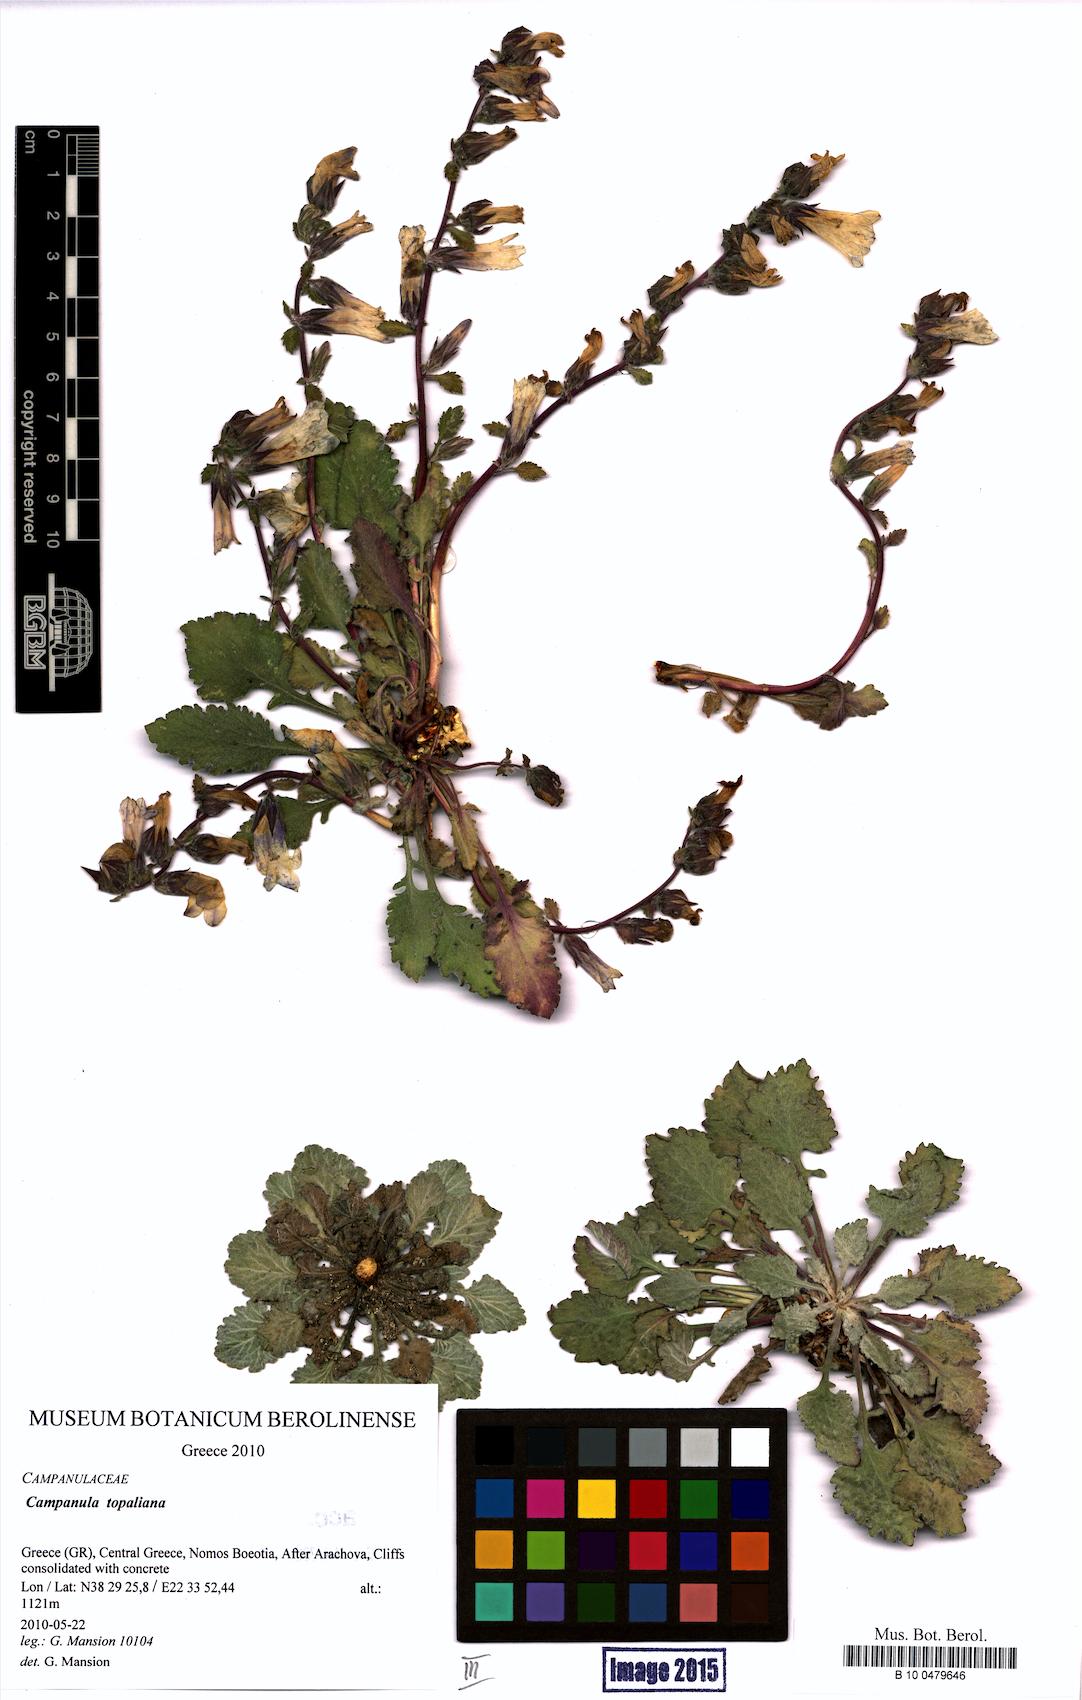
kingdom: Plantae
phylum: Tracheophyta
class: Magnoliopsida
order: Asterales
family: Campanulaceae
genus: Campanula
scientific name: Campanula topaliana
